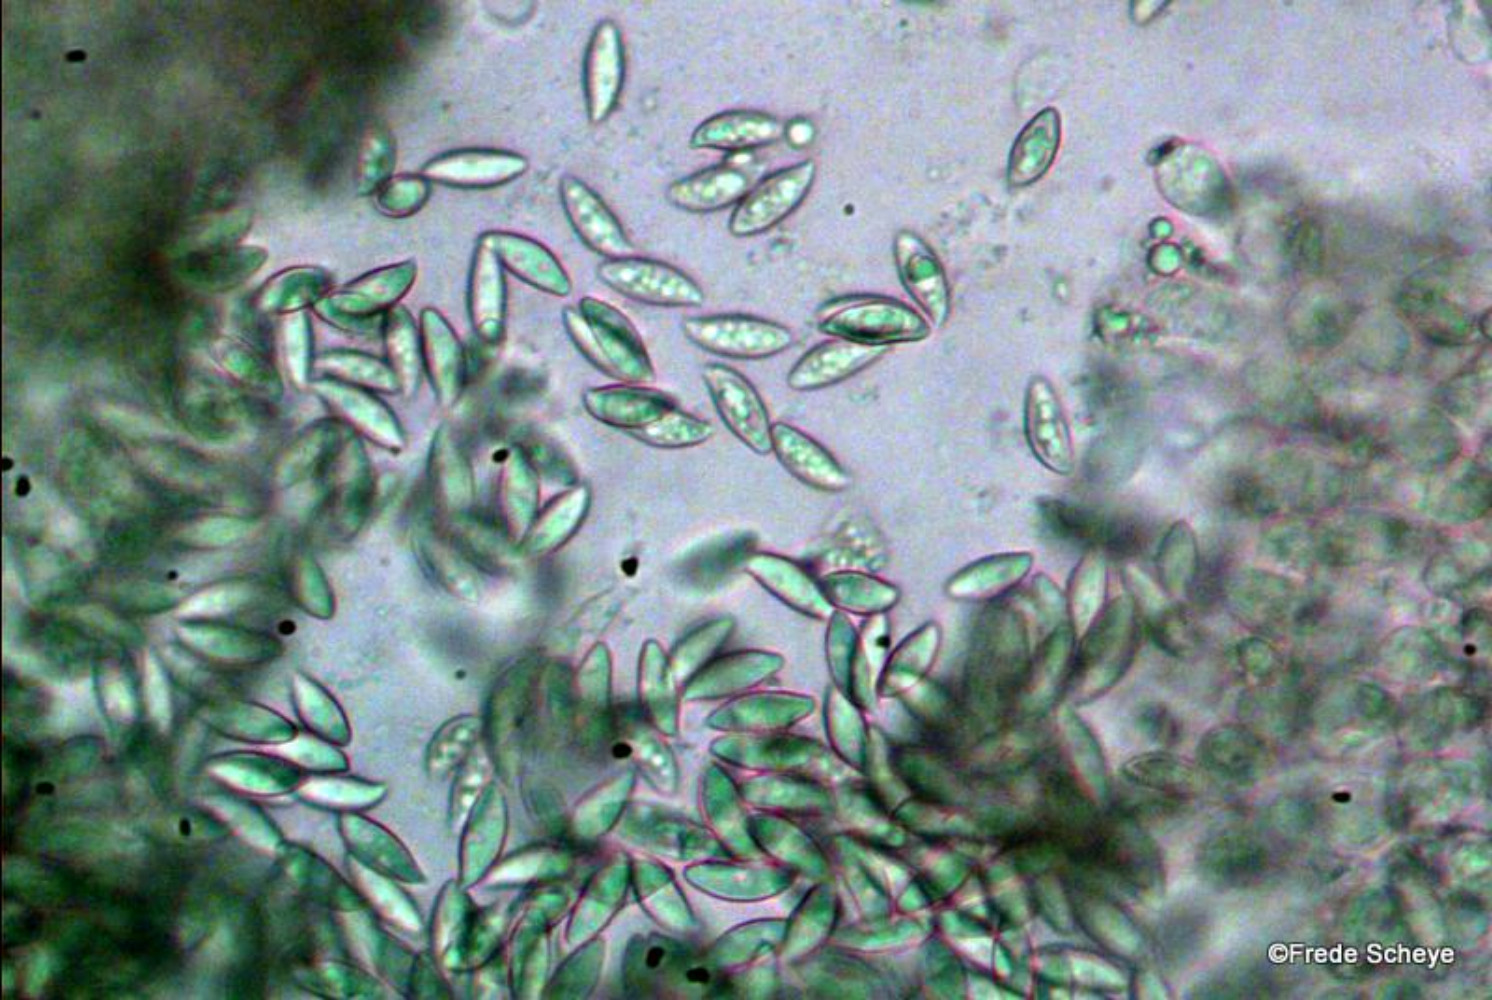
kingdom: Fungi
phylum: Basidiomycota
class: Agaricomycetes
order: Agaricales
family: Agaricaceae
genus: Lepiota
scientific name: Lepiota clypeolaria
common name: flosset parasolhat
